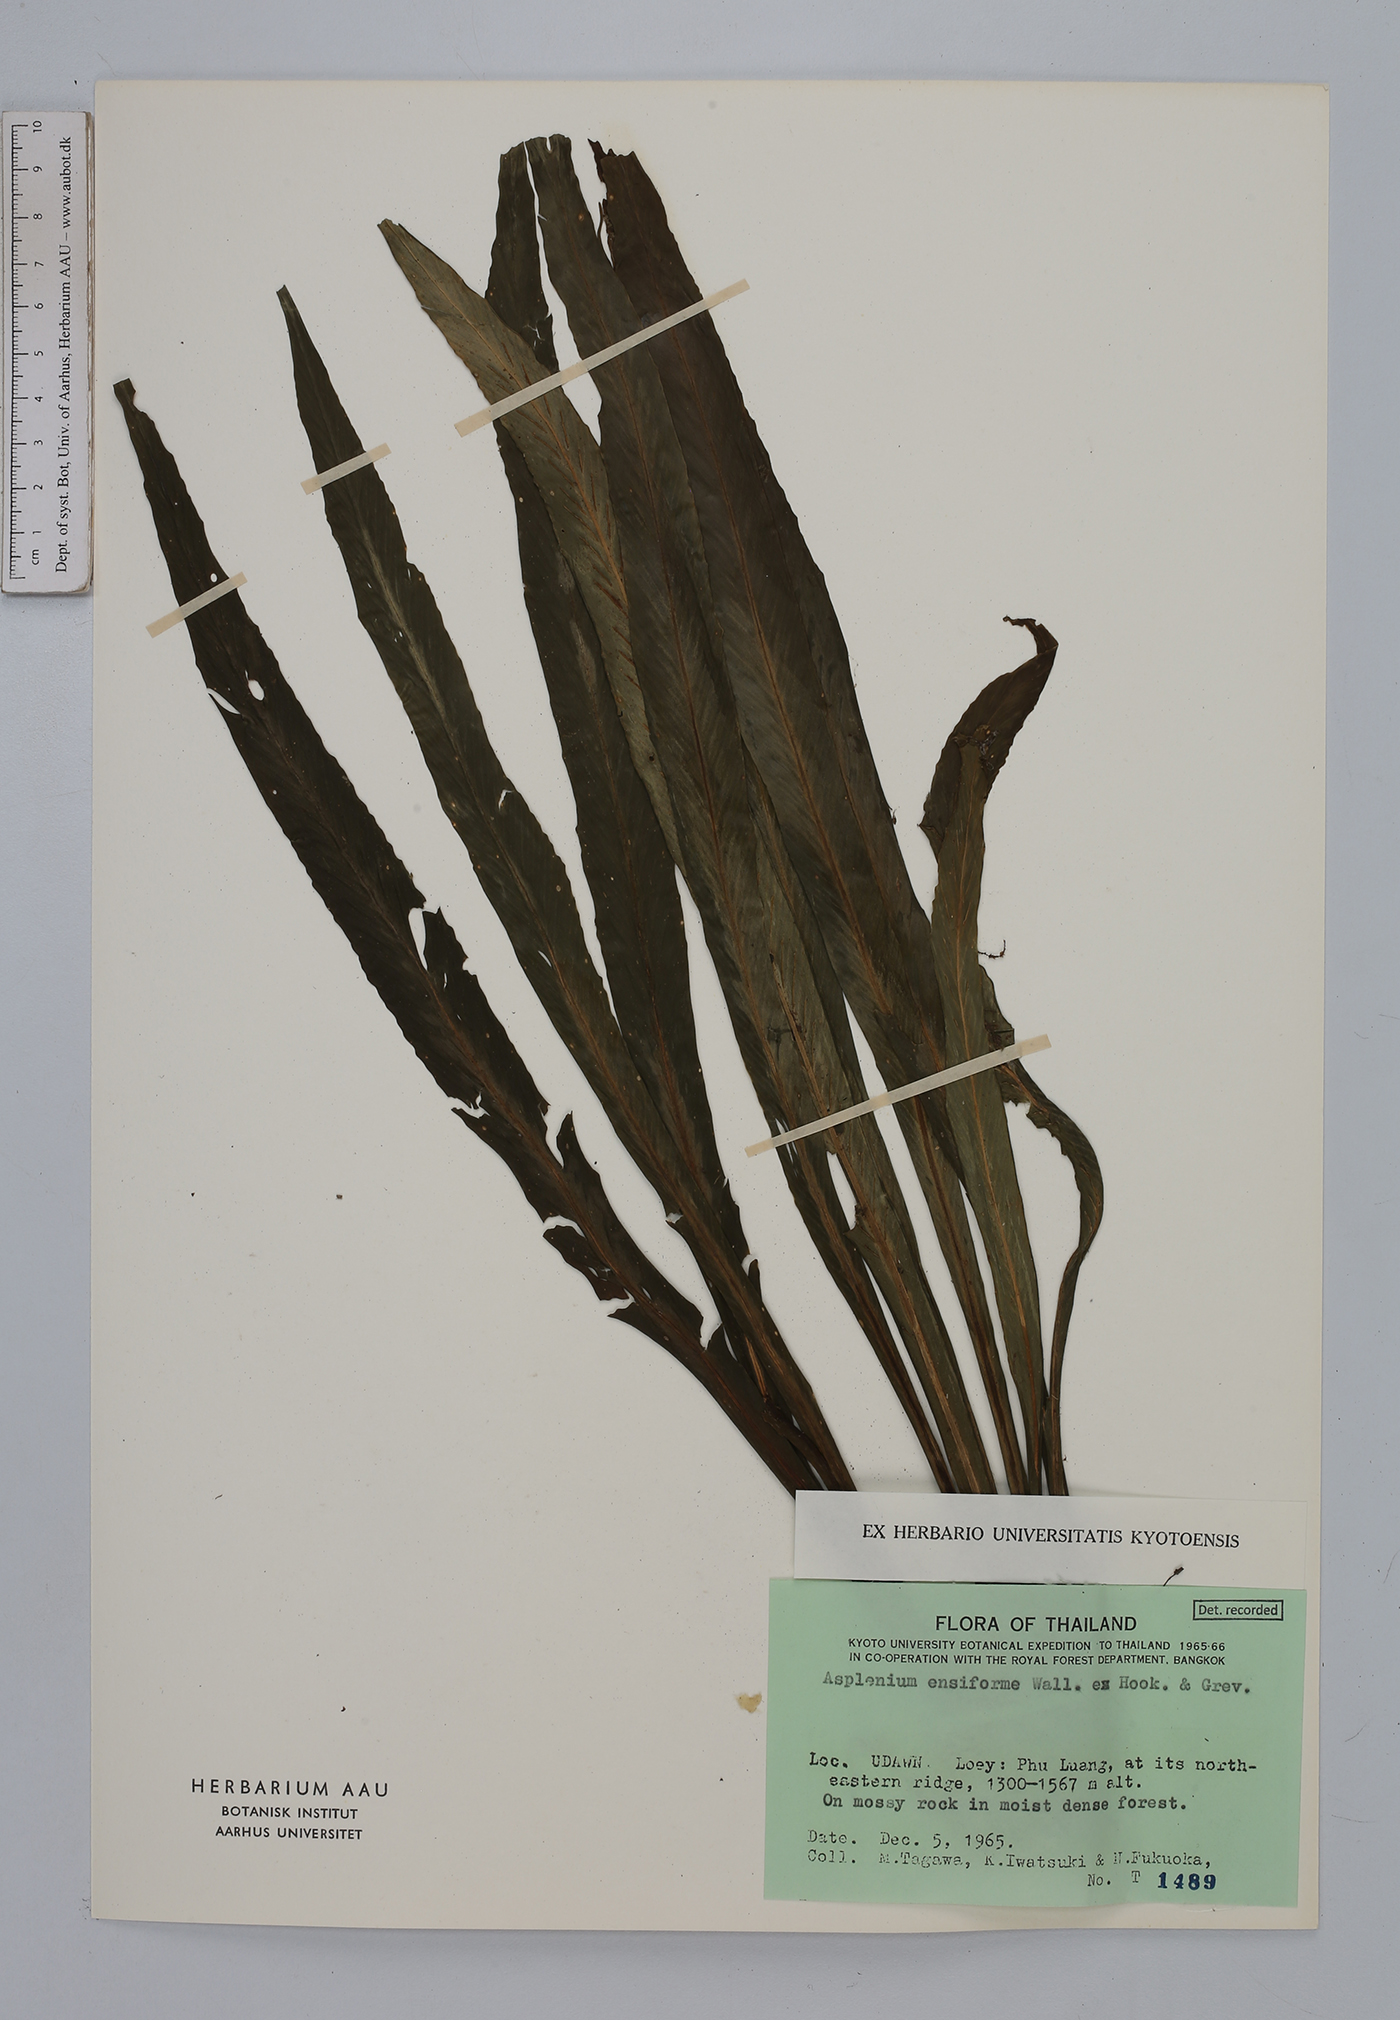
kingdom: Plantae
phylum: Tracheophyta
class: Polypodiopsida
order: Polypodiales
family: Aspleniaceae
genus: Asplenium
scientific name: Asplenium ensiforme
